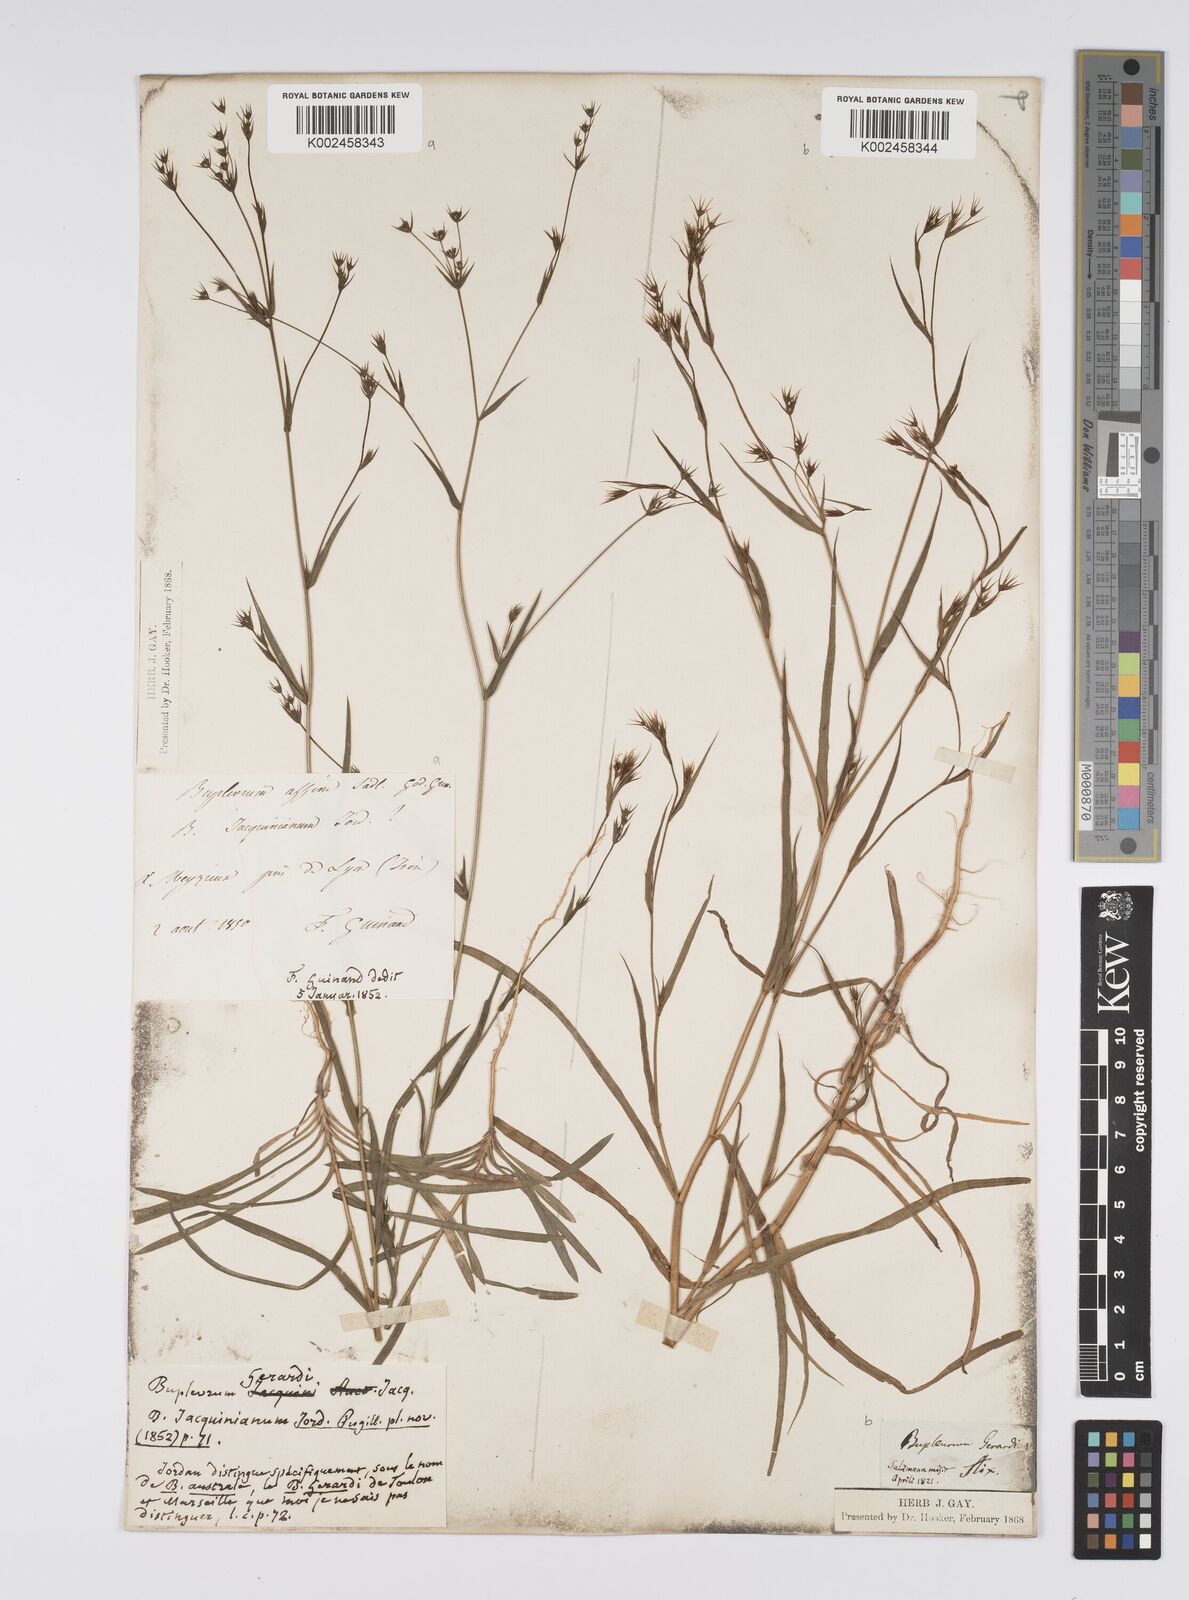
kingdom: Plantae
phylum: Tracheophyta
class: Magnoliopsida
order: Apiales
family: Apiaceae
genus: Bupleurum
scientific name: Bupleurum gerardi
